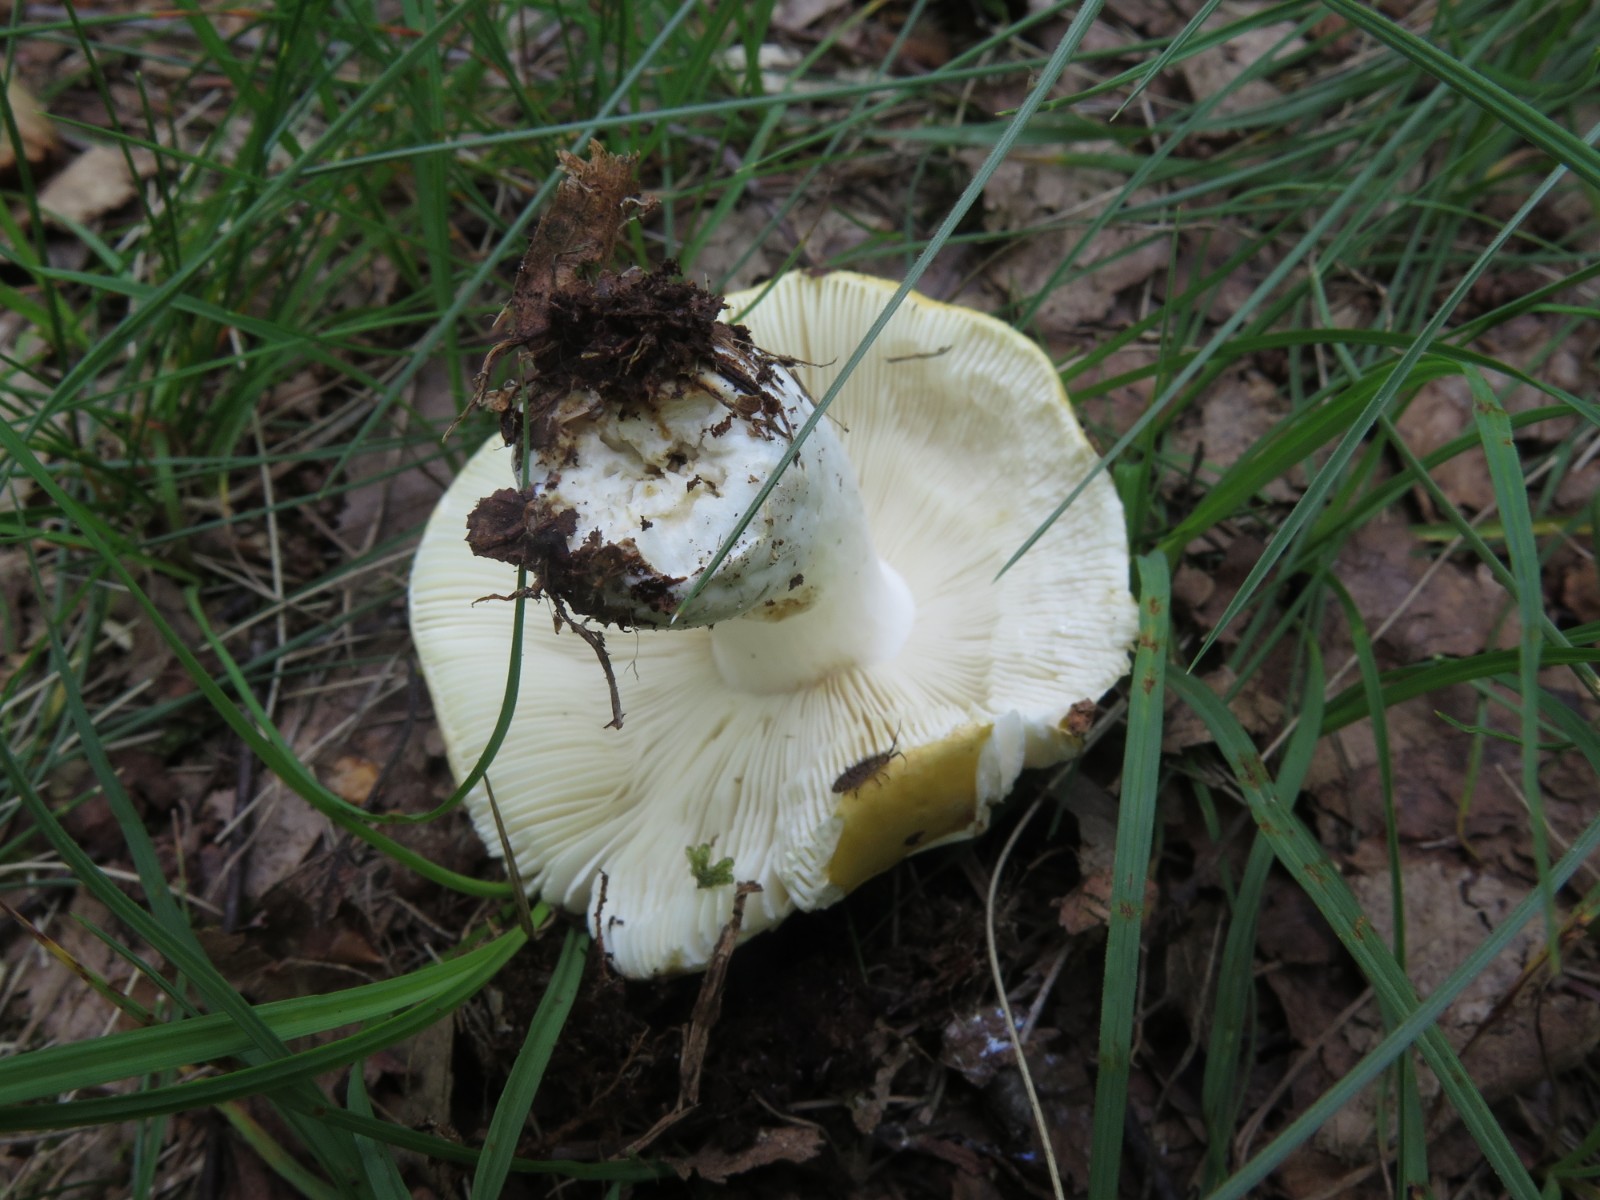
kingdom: Fungi
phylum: Basidiomycota
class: Agaricomycetes
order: Russulales
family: Russulaceae
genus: Russula
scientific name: Russula claroflava
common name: birke-skørhat
